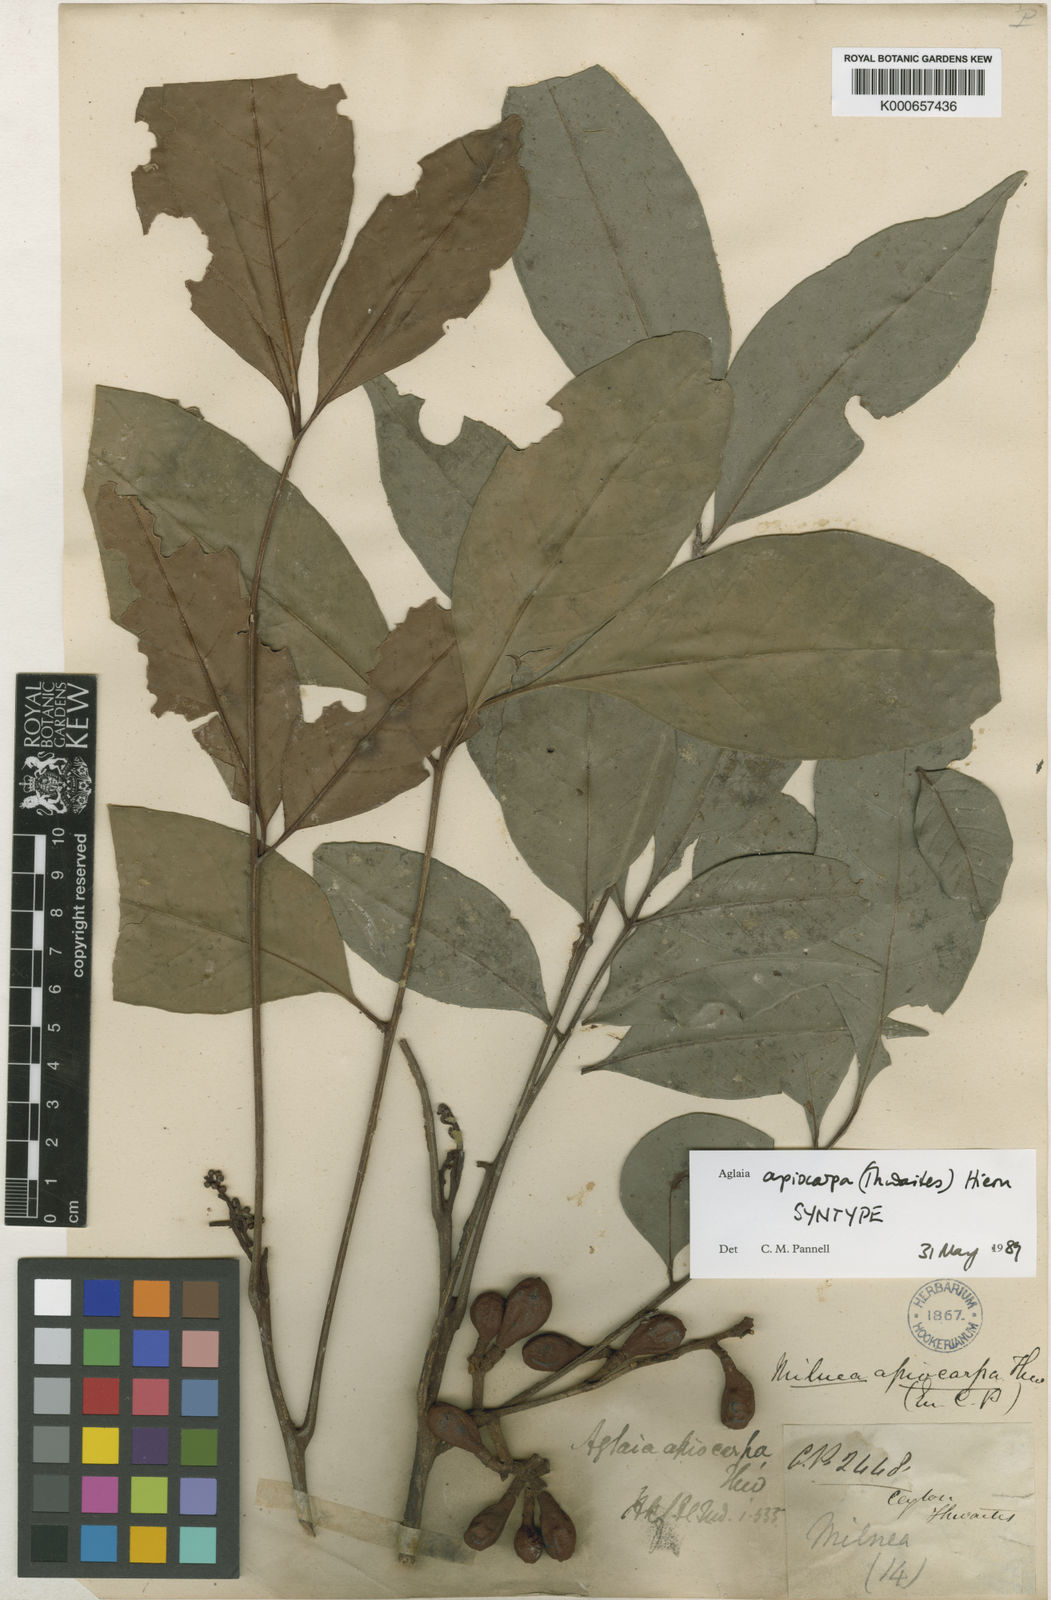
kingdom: Plantae
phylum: Tracheophyta
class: Magnoliopsida
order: Sapindales
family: Meliaceae
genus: Aglaia
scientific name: Aglaia apiocarpa
